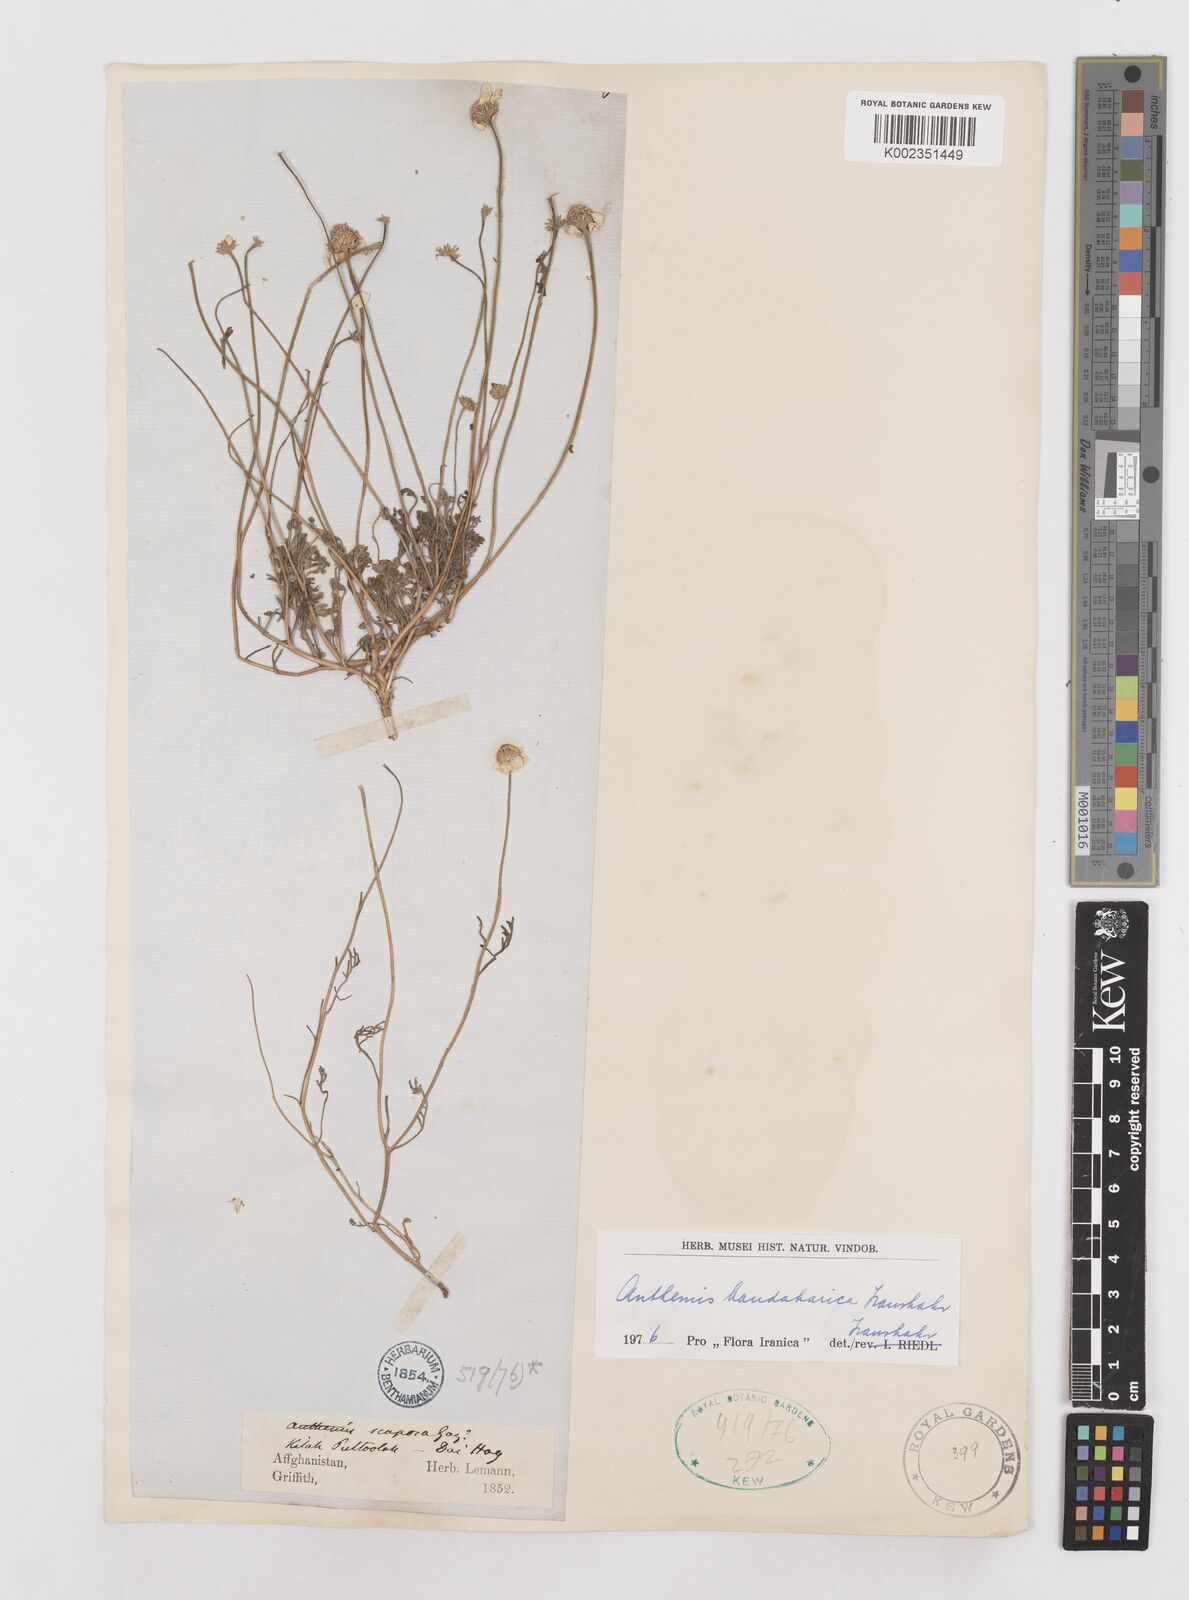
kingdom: Plantae
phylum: Tracheophyta
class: Magnoliopsida
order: Asterales
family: Asteraceae
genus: Anthemis
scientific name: Anthemis gayana
